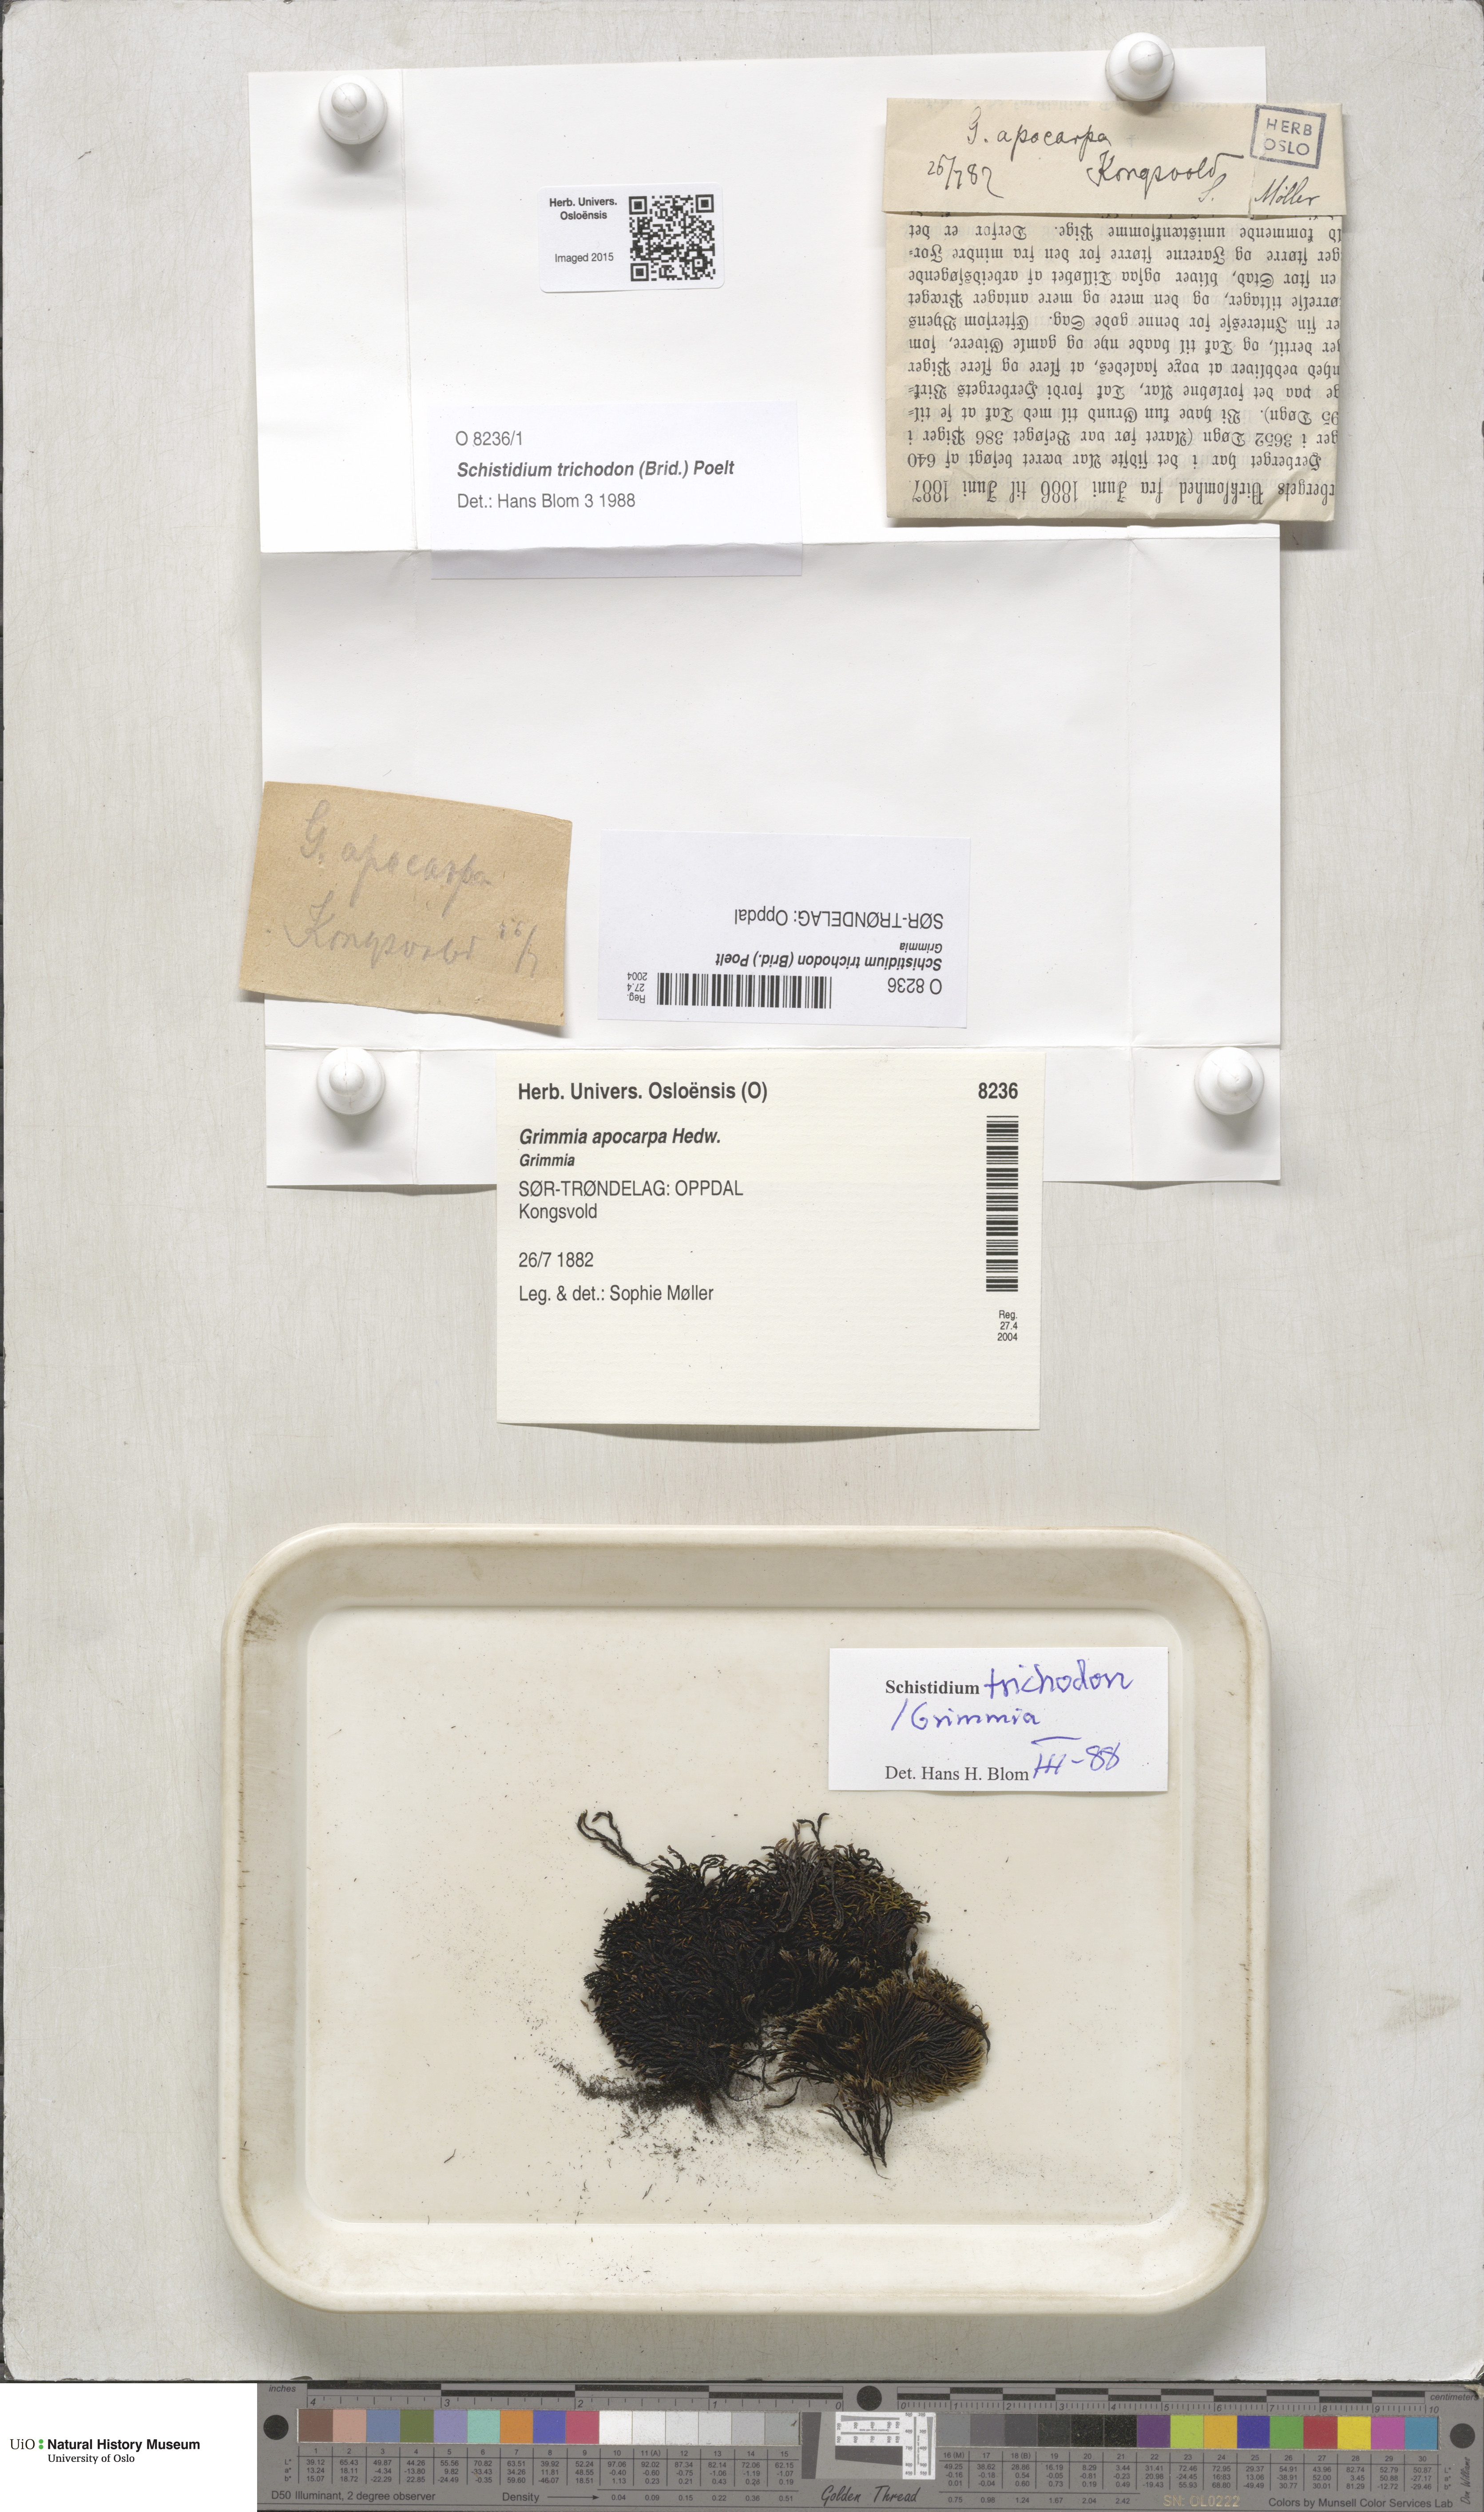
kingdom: Plantae
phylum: Bryophyta
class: Bryopsida
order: Grimmiales
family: Grimmiaceae
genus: Schistidium
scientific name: Schistidium trichodon
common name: Black bloom moss
